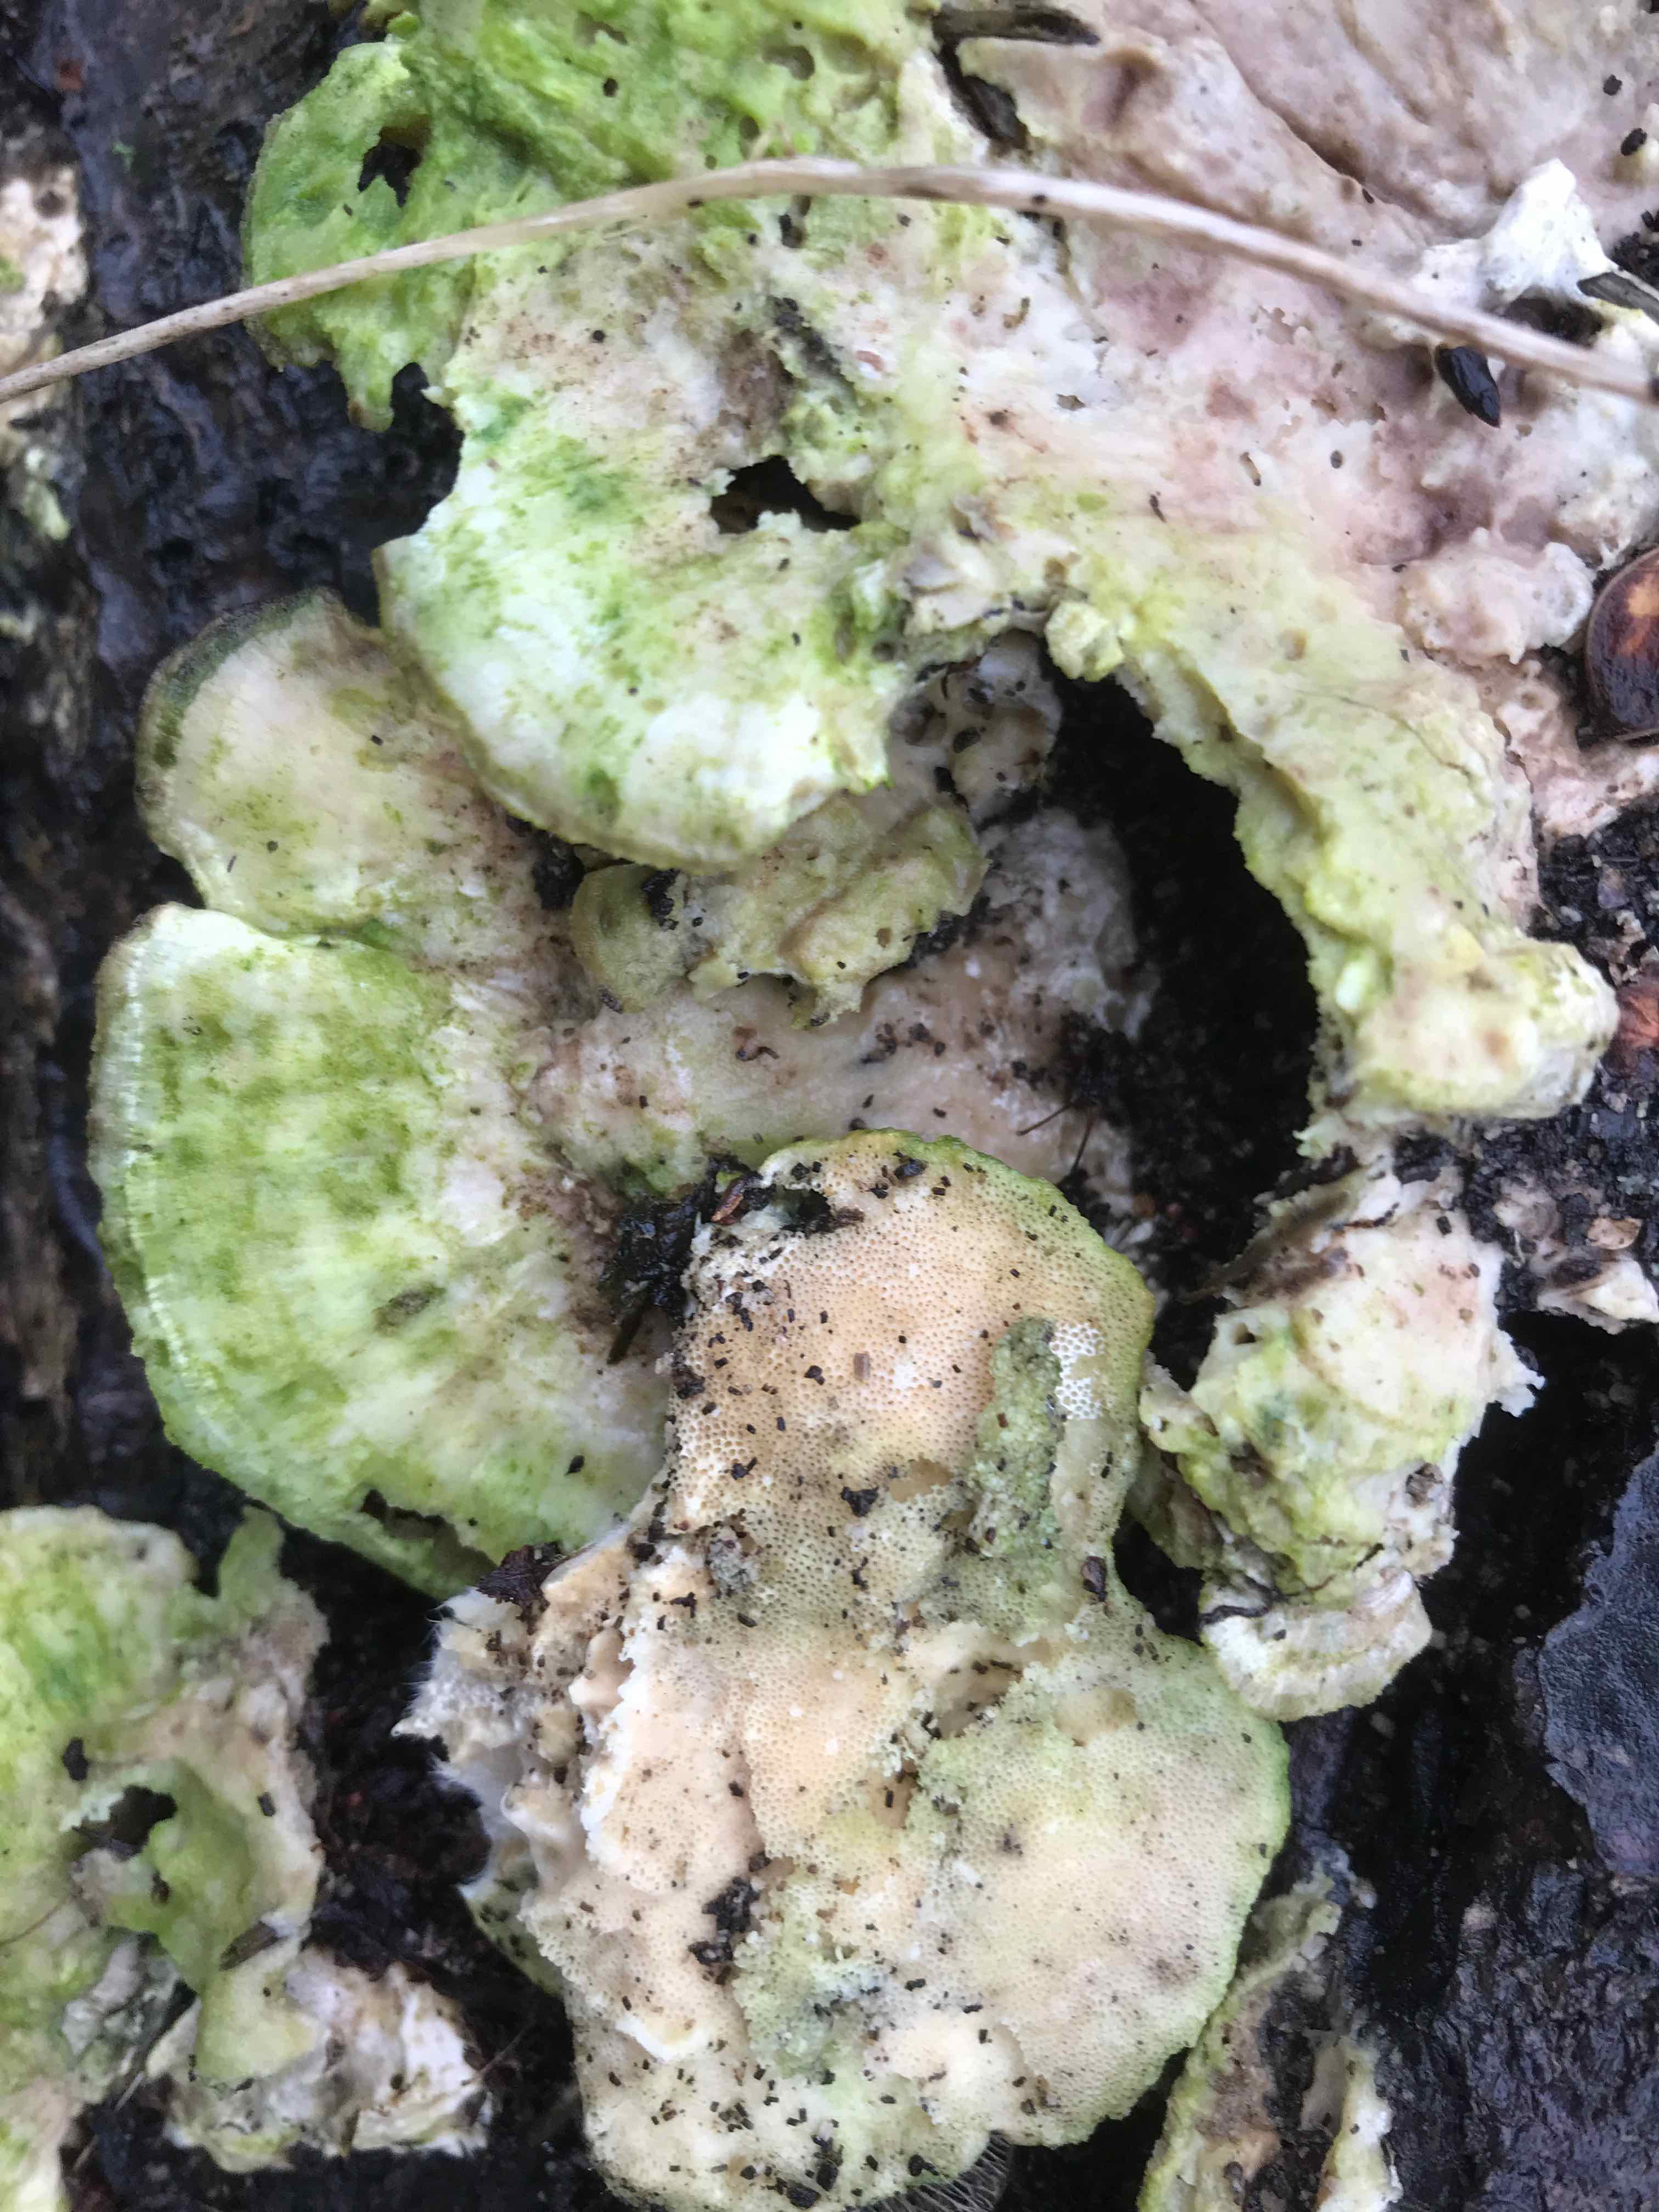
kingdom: Fungi
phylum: Basidiomycota
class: Agaricomycetes
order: Polyporales
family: Polyporaceae
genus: Trametes
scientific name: Trametes hirsuta
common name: håret læderporesvamp
